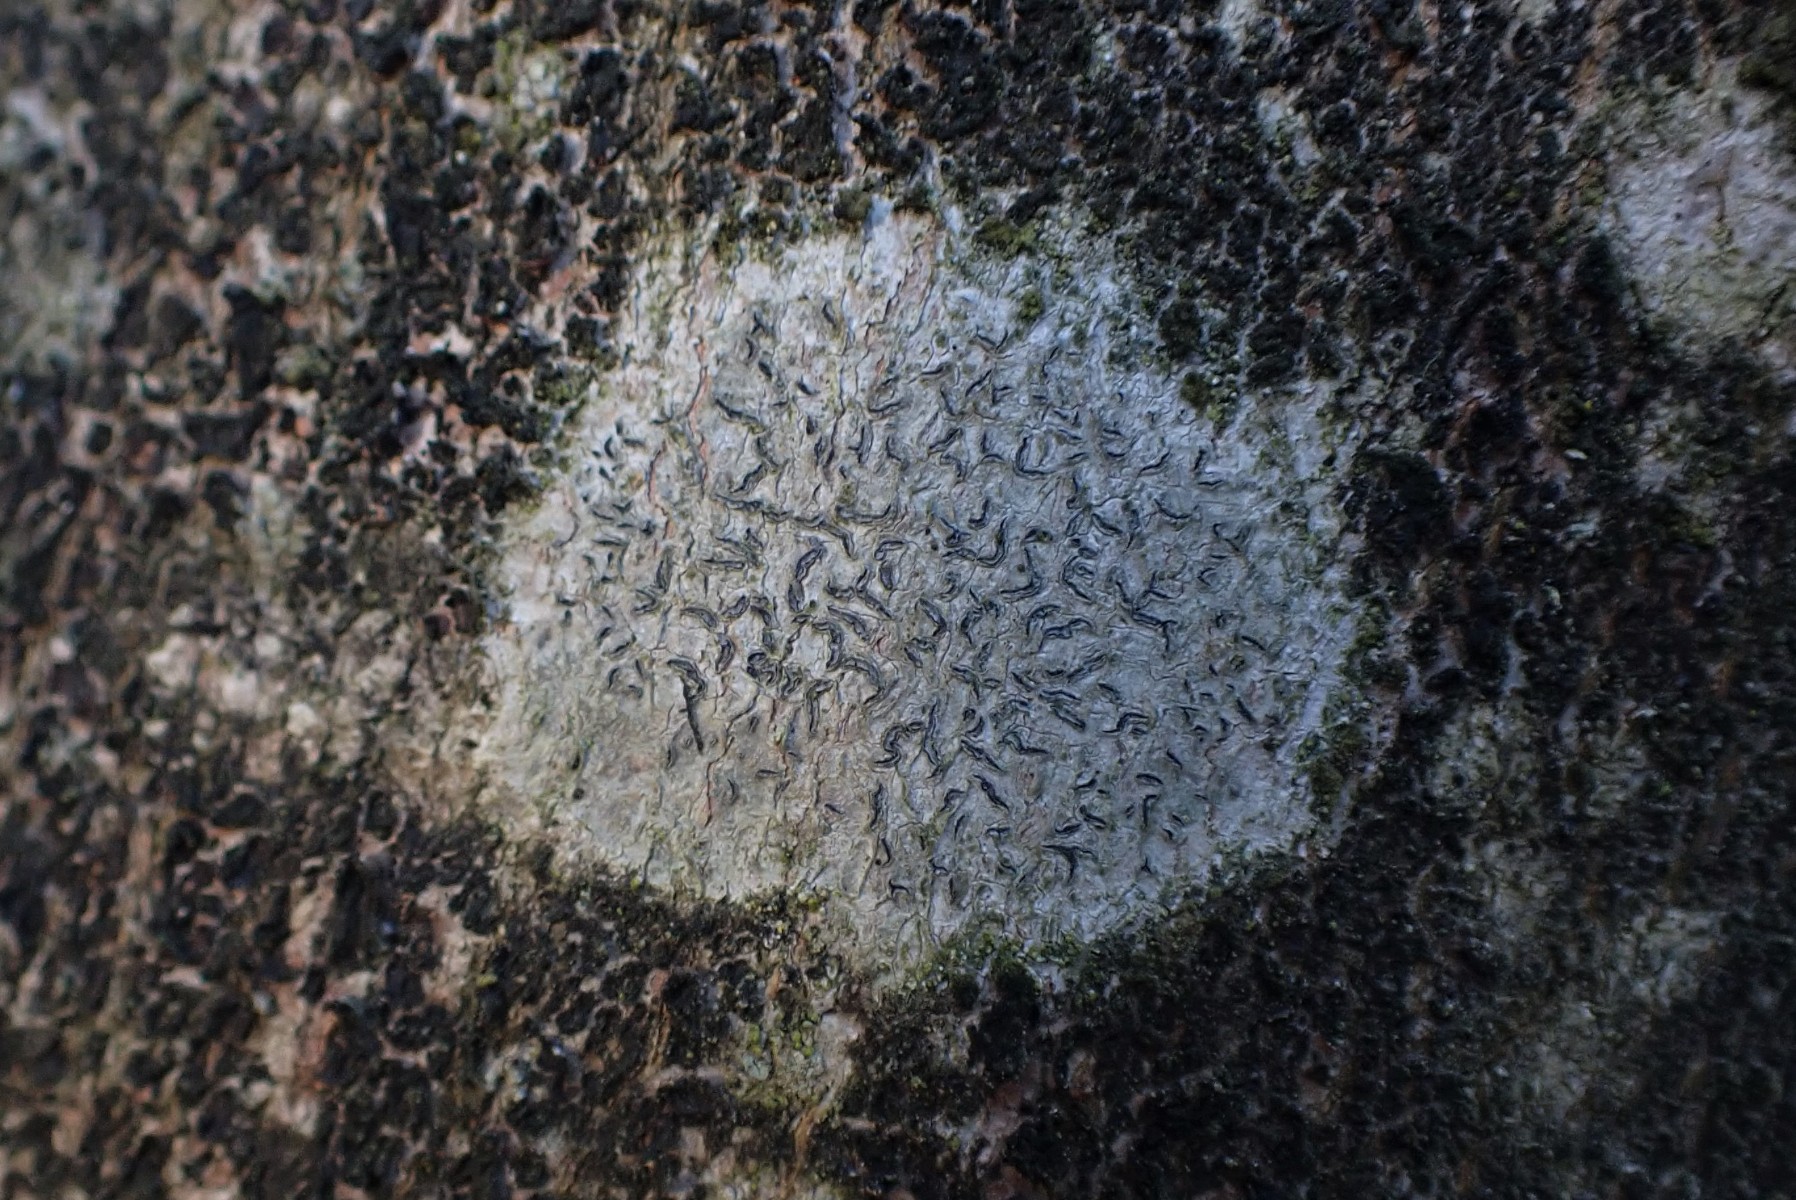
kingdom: Fungi
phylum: Ascomycota
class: Lecanoromycetes
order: Ostropales
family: Graphidaceae
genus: Graphis
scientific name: Graphis scripta
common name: almindelig skriftlav
